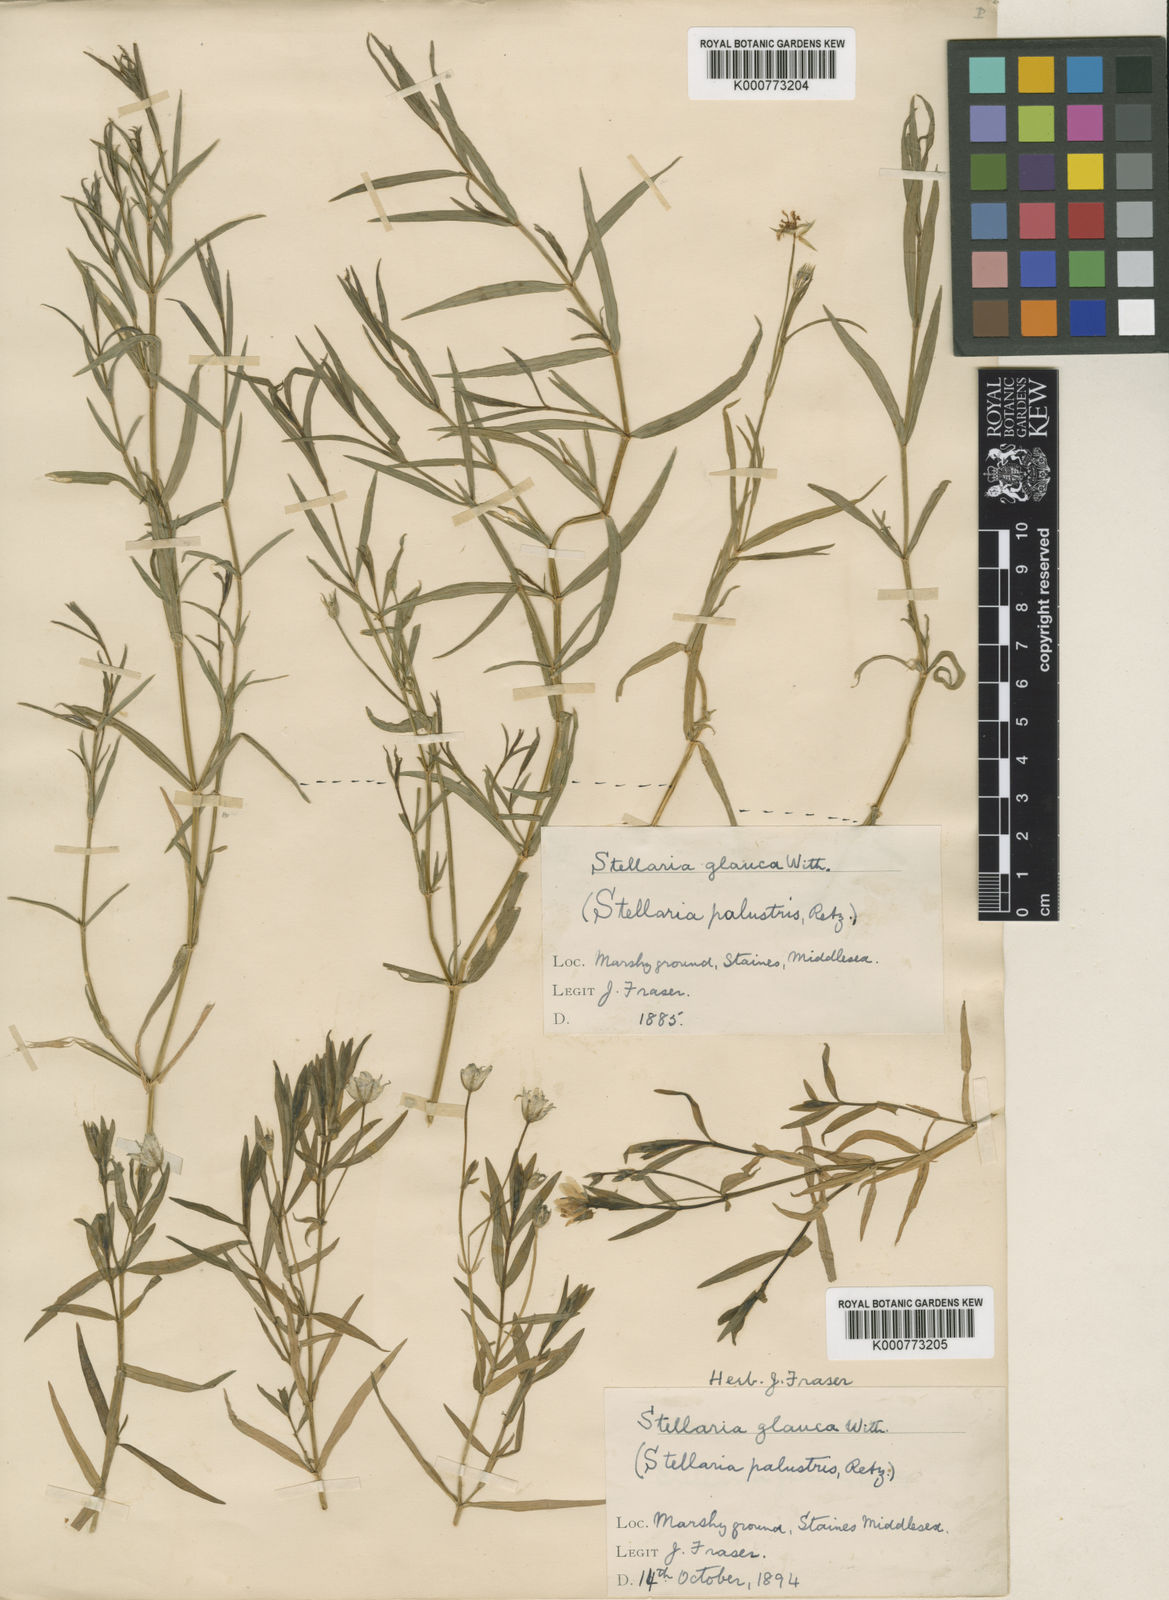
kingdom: Plantae
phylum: Tracheophyta
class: Magnoliopsida
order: Caryophyllales
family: Caryophyllaceae
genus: Stellaria
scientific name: Stellaria
